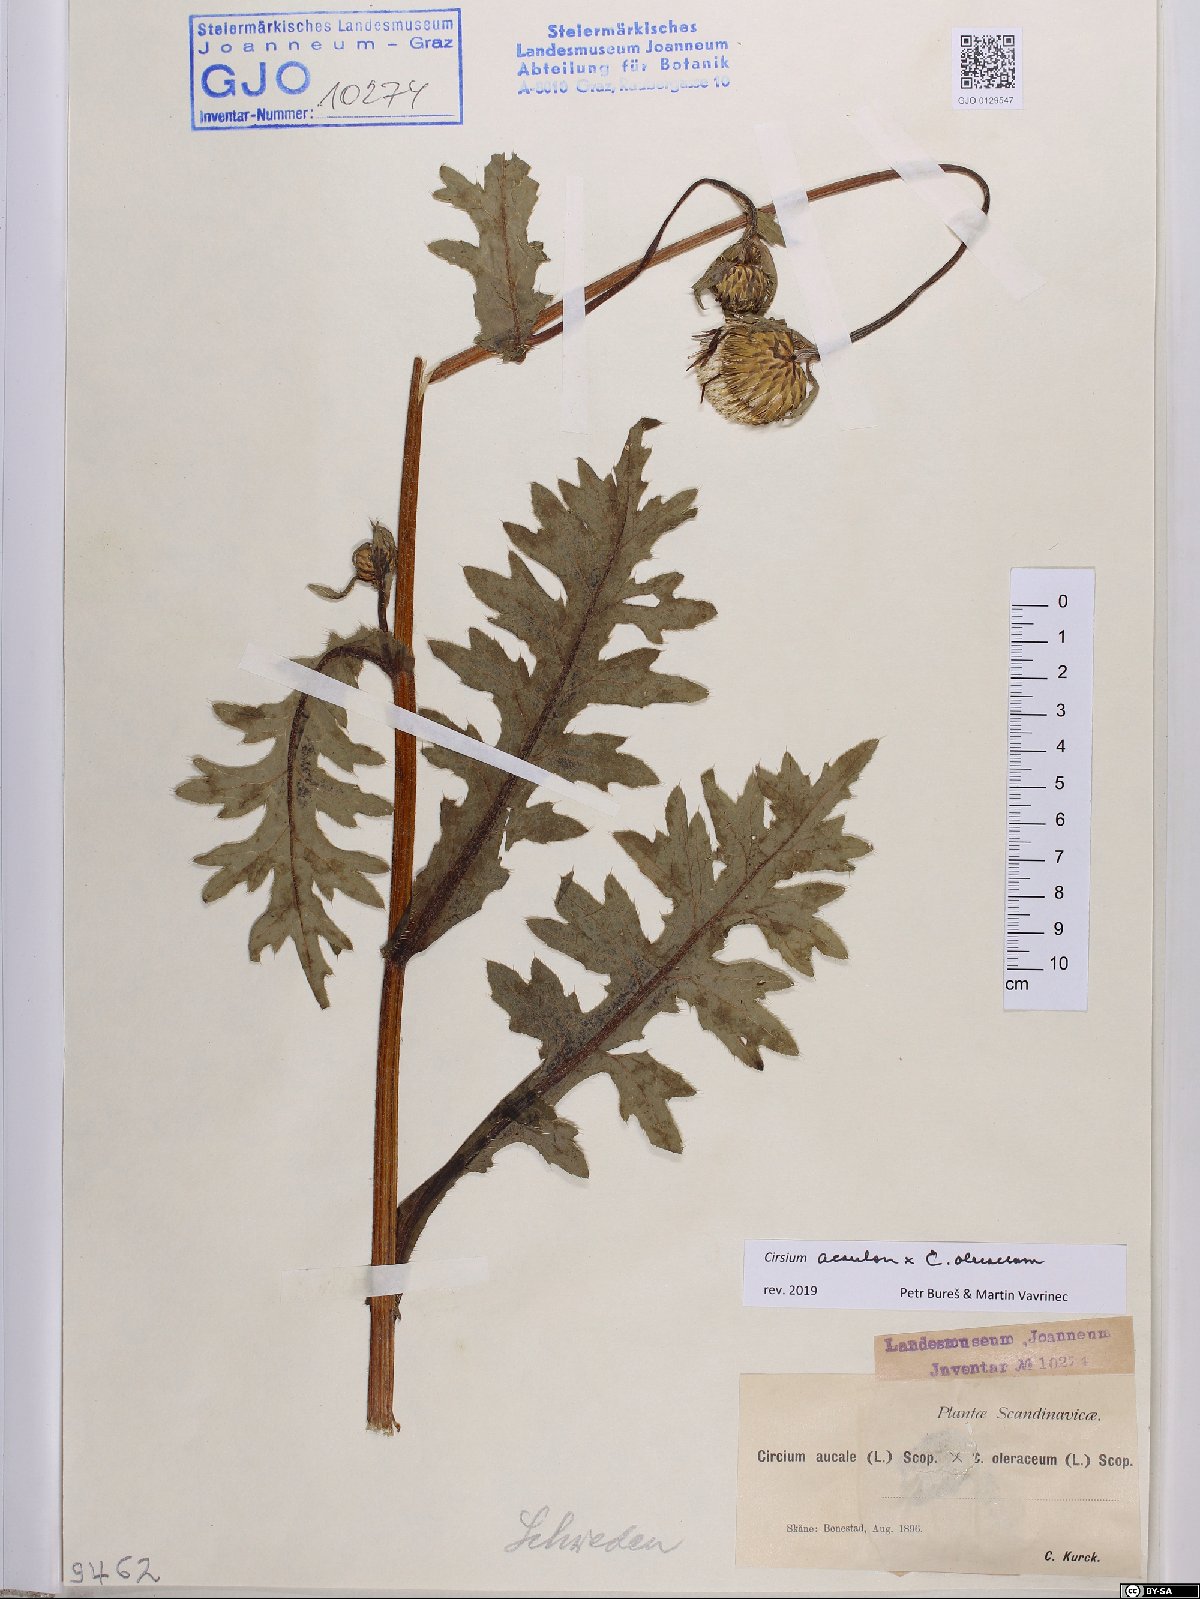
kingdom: Plantae
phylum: Tracheophyta
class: Magnoliopsida
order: Asterales
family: Asteraceae
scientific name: Asteraceae
